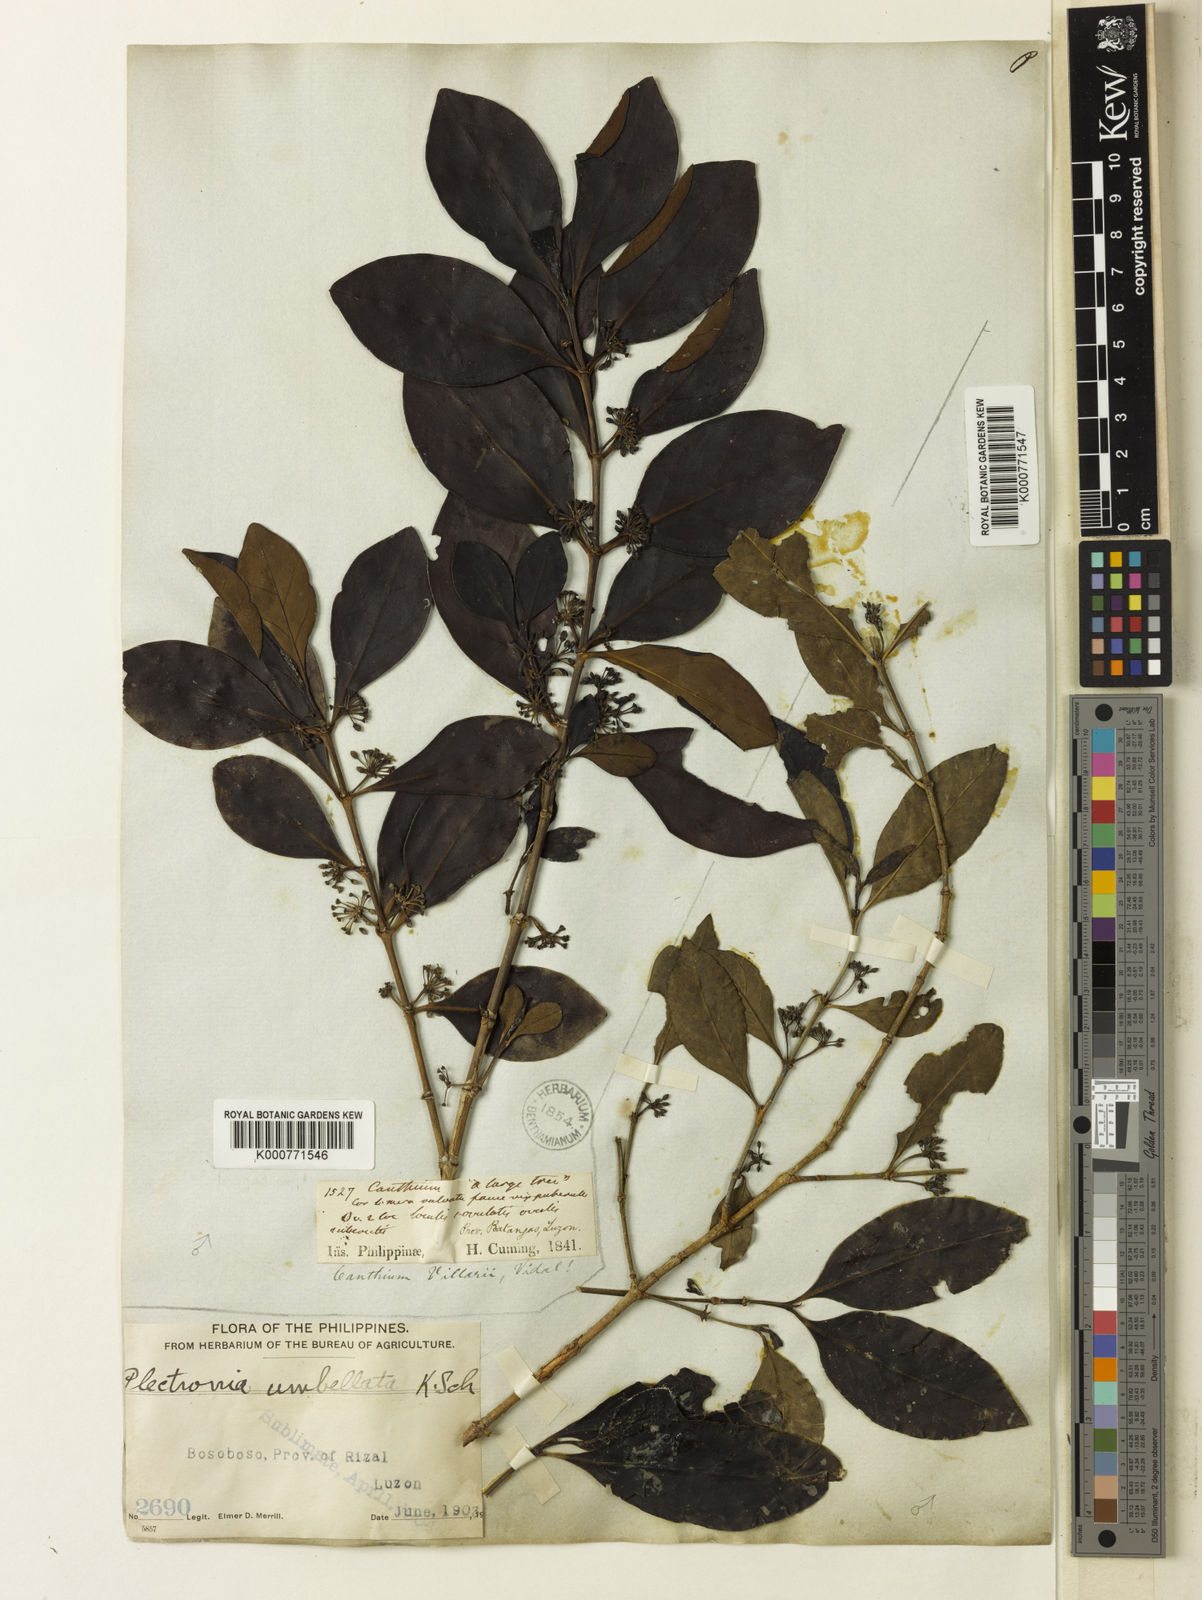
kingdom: Plantae
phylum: Tracheophyta
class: Magnoliopsida
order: Gentianales
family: Rubiaceae
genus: Canthium
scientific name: Canthium villarii
